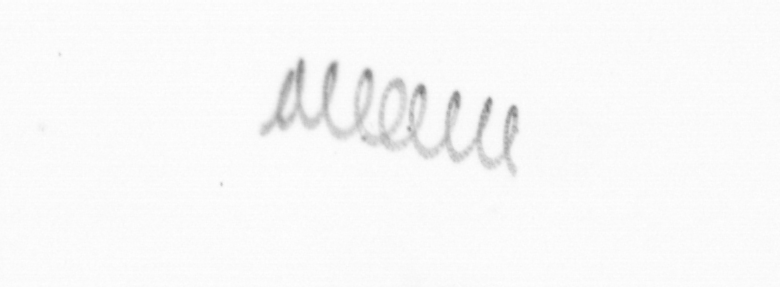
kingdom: Chromista
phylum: Ochrophyta
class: Bacillariophyceae
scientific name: Bacillariophyceae
